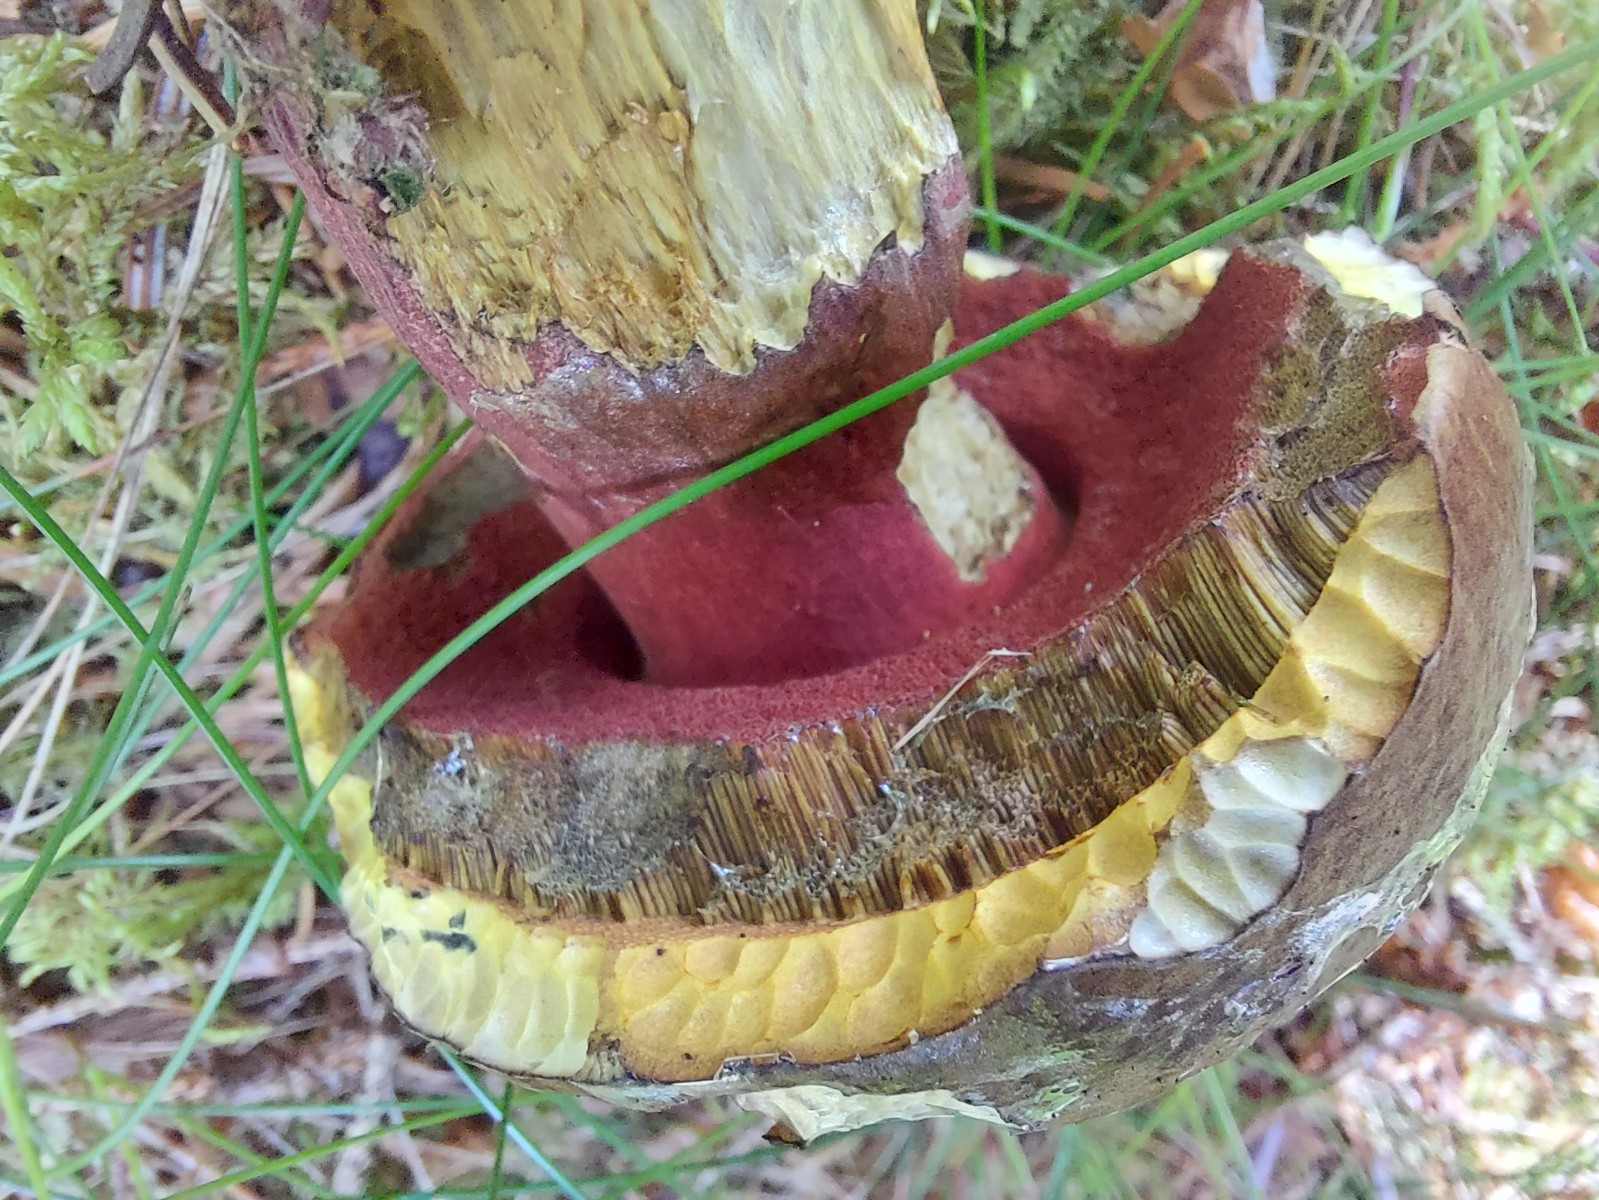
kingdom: Fungi
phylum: Basidiomycota
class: Agaricomycetes
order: Boletales
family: Boletaceae
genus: Neoboletus
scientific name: Neoboletus erythropus
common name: punktstokket indigorørhat
